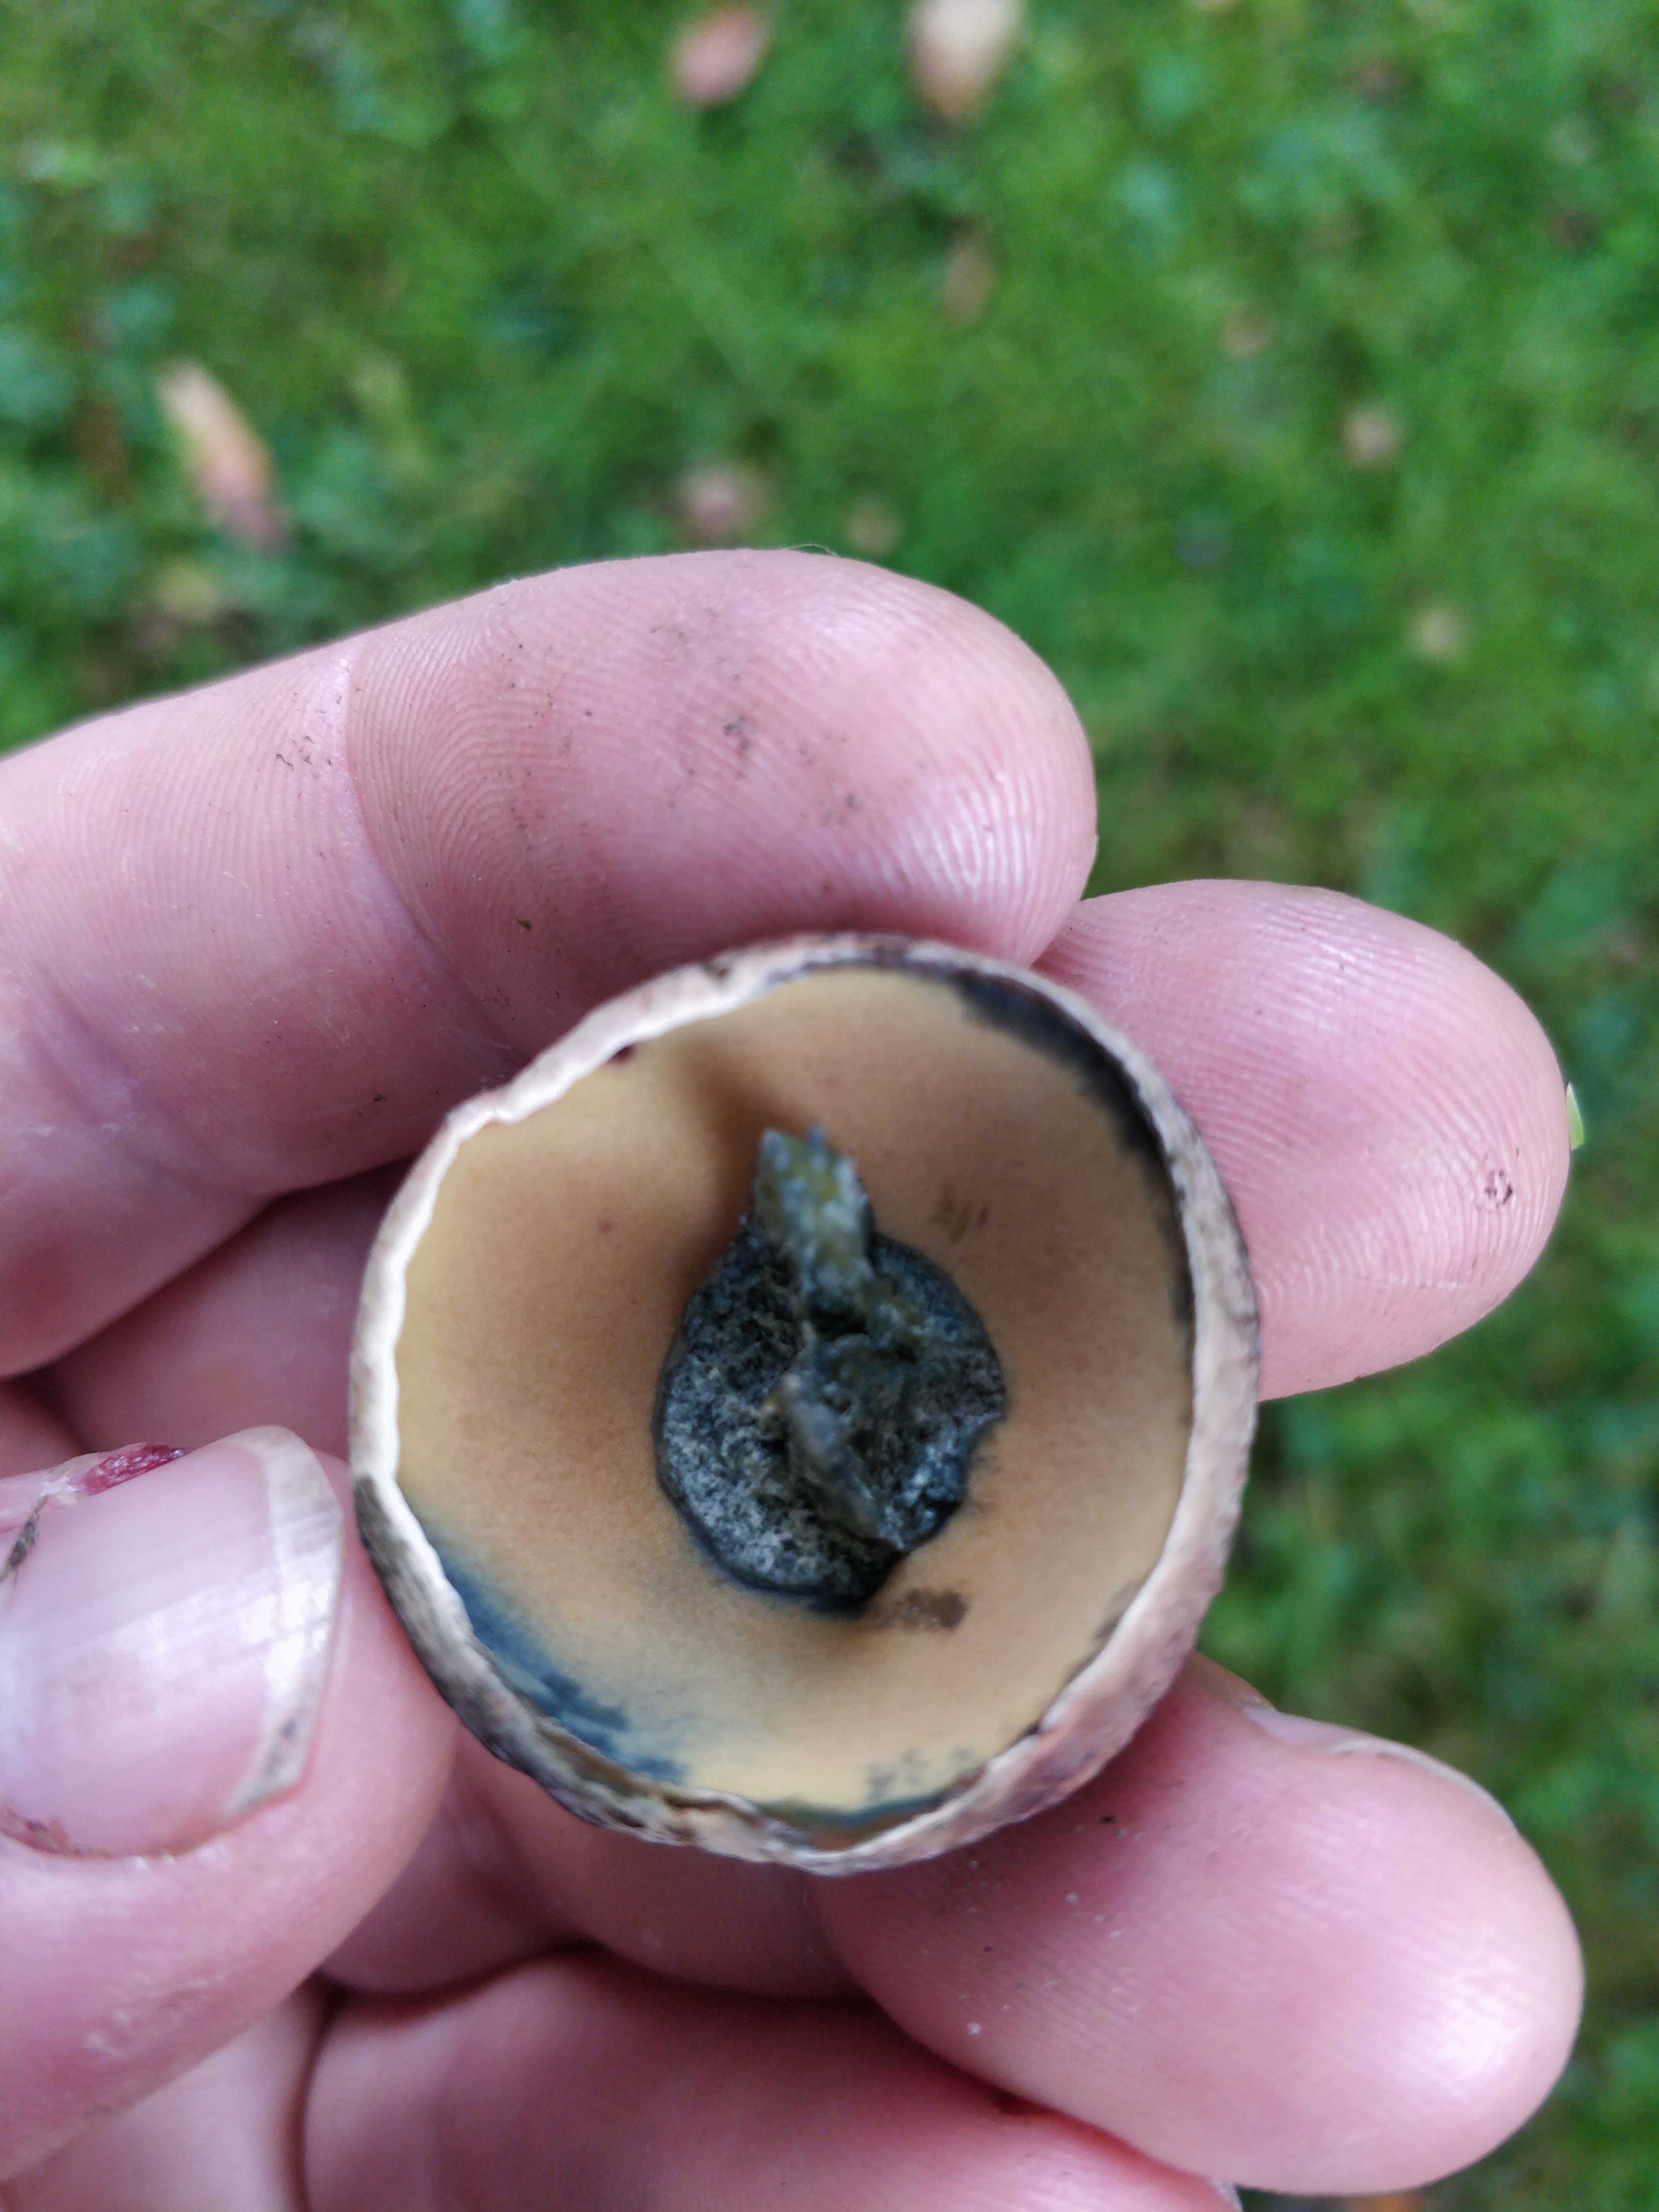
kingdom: Fungi
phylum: Basidiomycota
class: Agaricomycetes
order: Boletales
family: Boletaceae
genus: Suillellus
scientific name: Suillellus luridus
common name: netstokket indigorørhat
